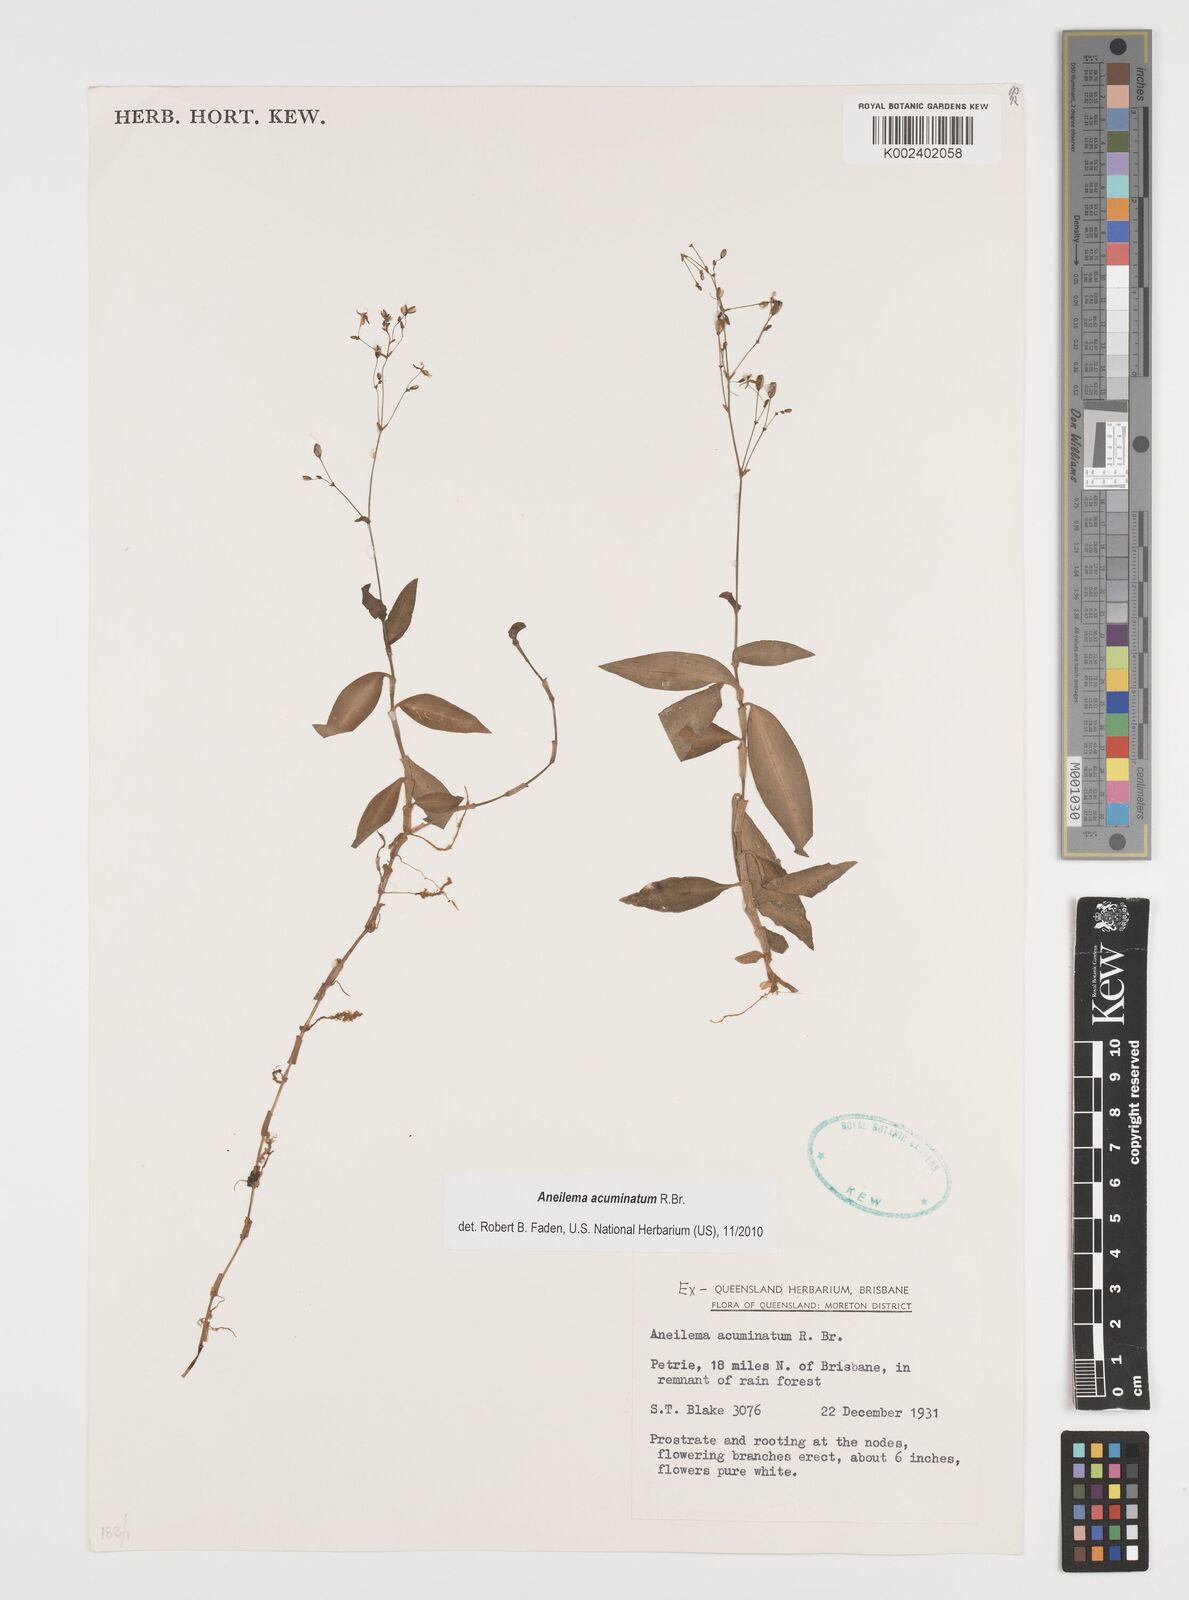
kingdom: Plantae
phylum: Tracheophyta
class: Liliopsida
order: Commelinales
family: Commelinaceae
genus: Aneilema
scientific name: Aneilema acuminatum
